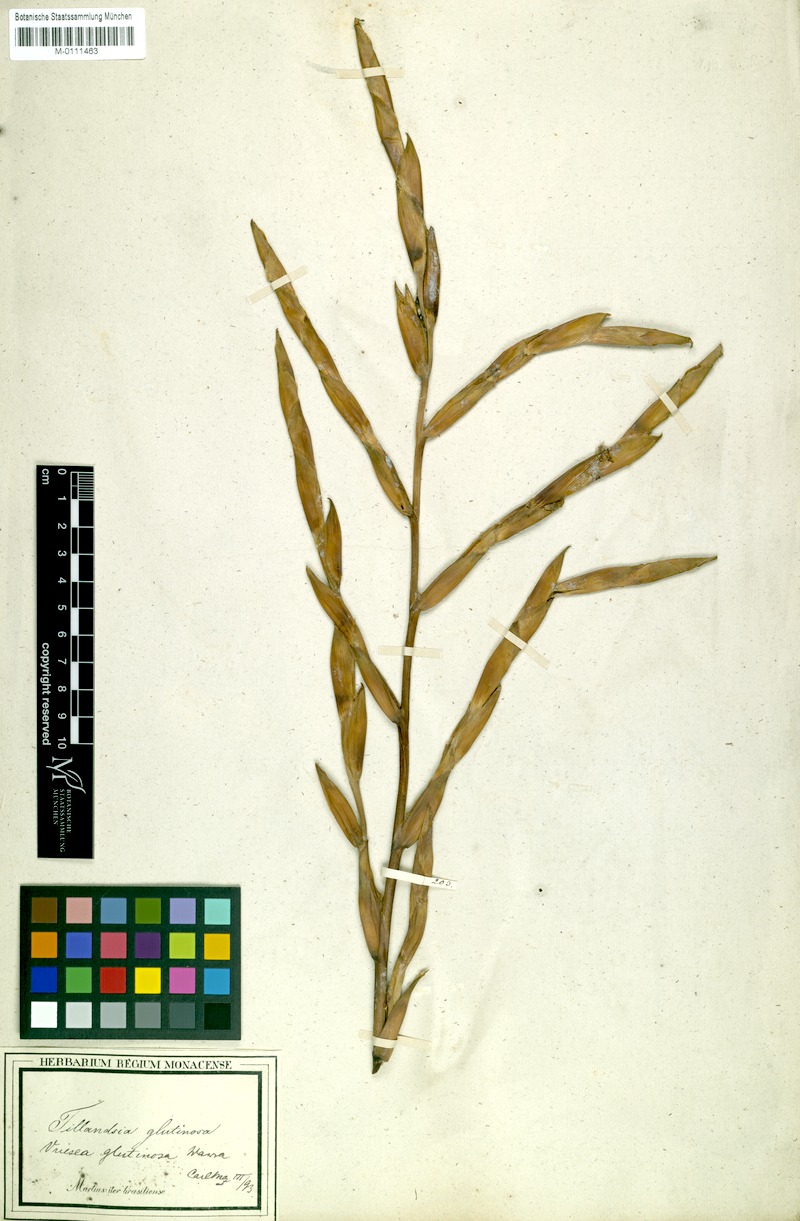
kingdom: Plantae
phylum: Tracheophyta
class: Liliopsida
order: Poales
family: Bromeliaceae
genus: Vriesea
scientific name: Vriesea neoglutinosa
